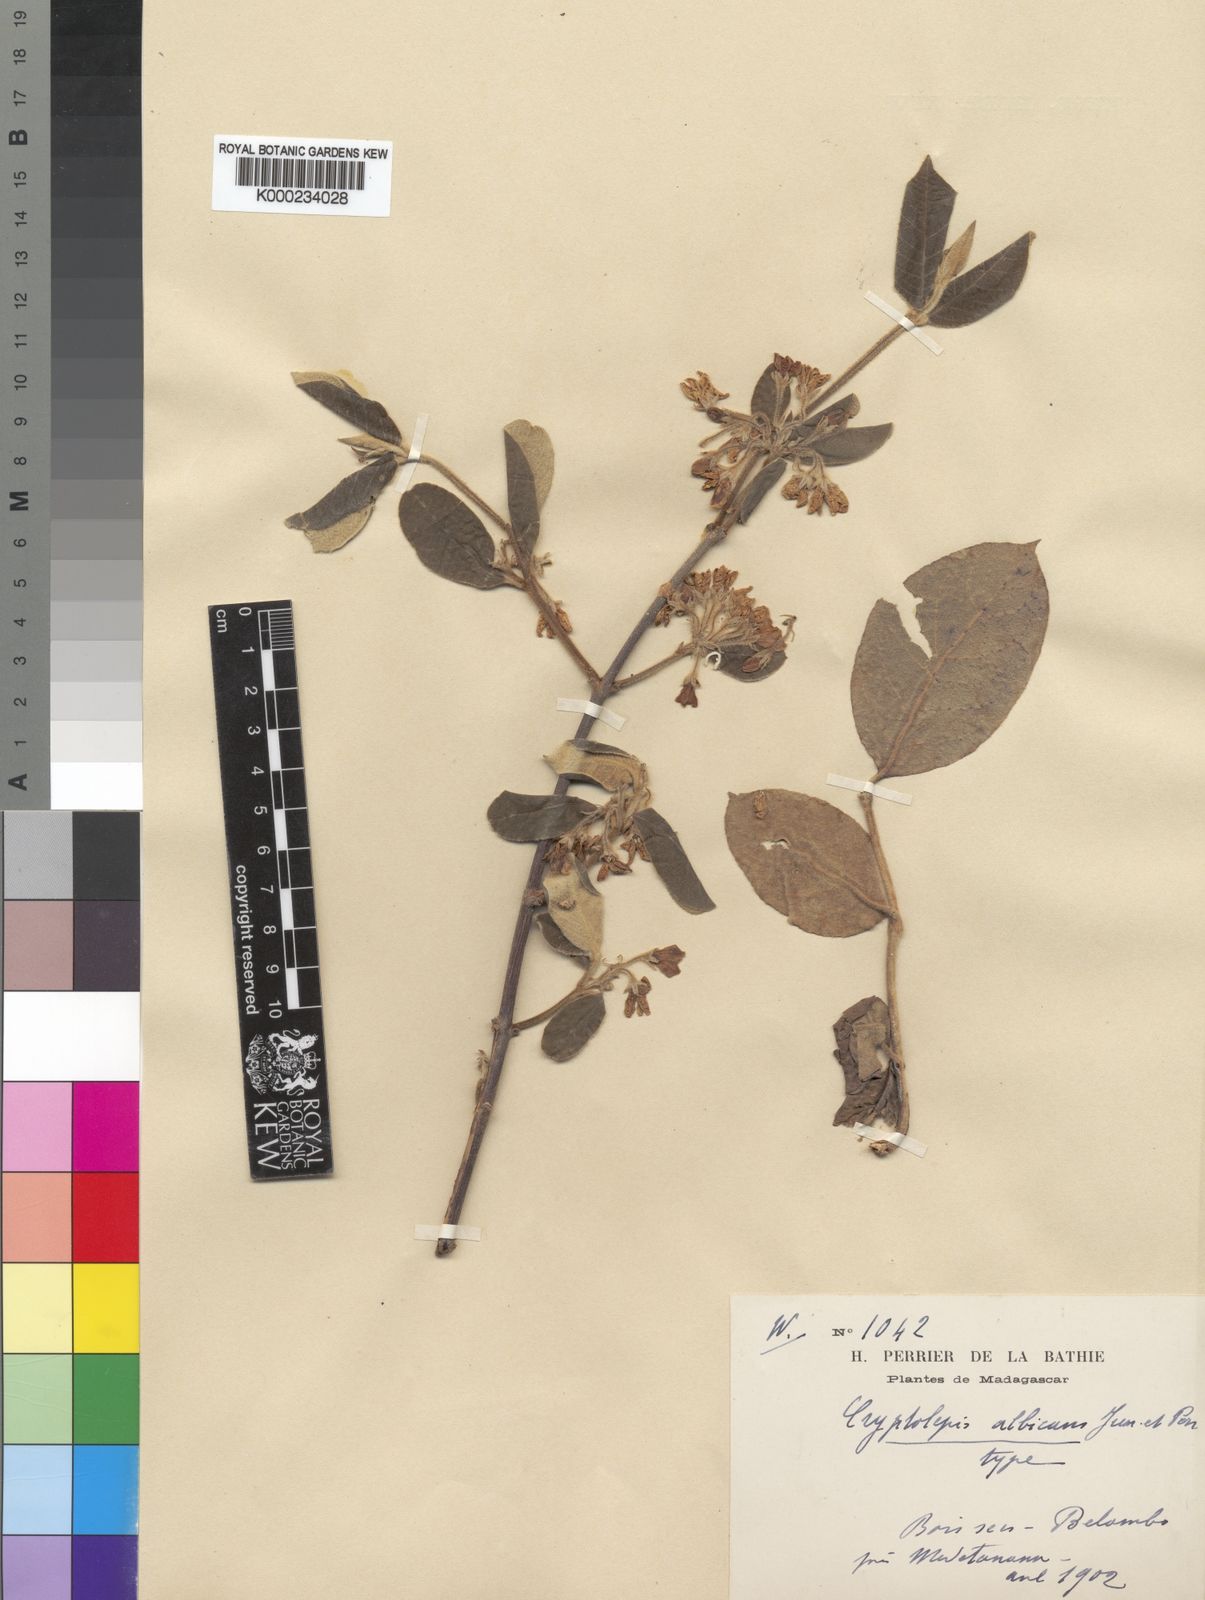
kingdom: Plantae
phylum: Tracheophyta
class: Magnoliopsida
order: Gentianales
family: Apocynaceae
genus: Pentopetia
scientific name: Pentopetia albicans
